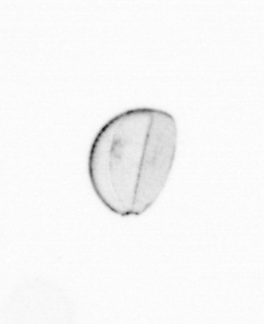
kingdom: Chromista
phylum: Ochrophyta
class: Bacillariophyceae
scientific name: Bacillariophyceae
